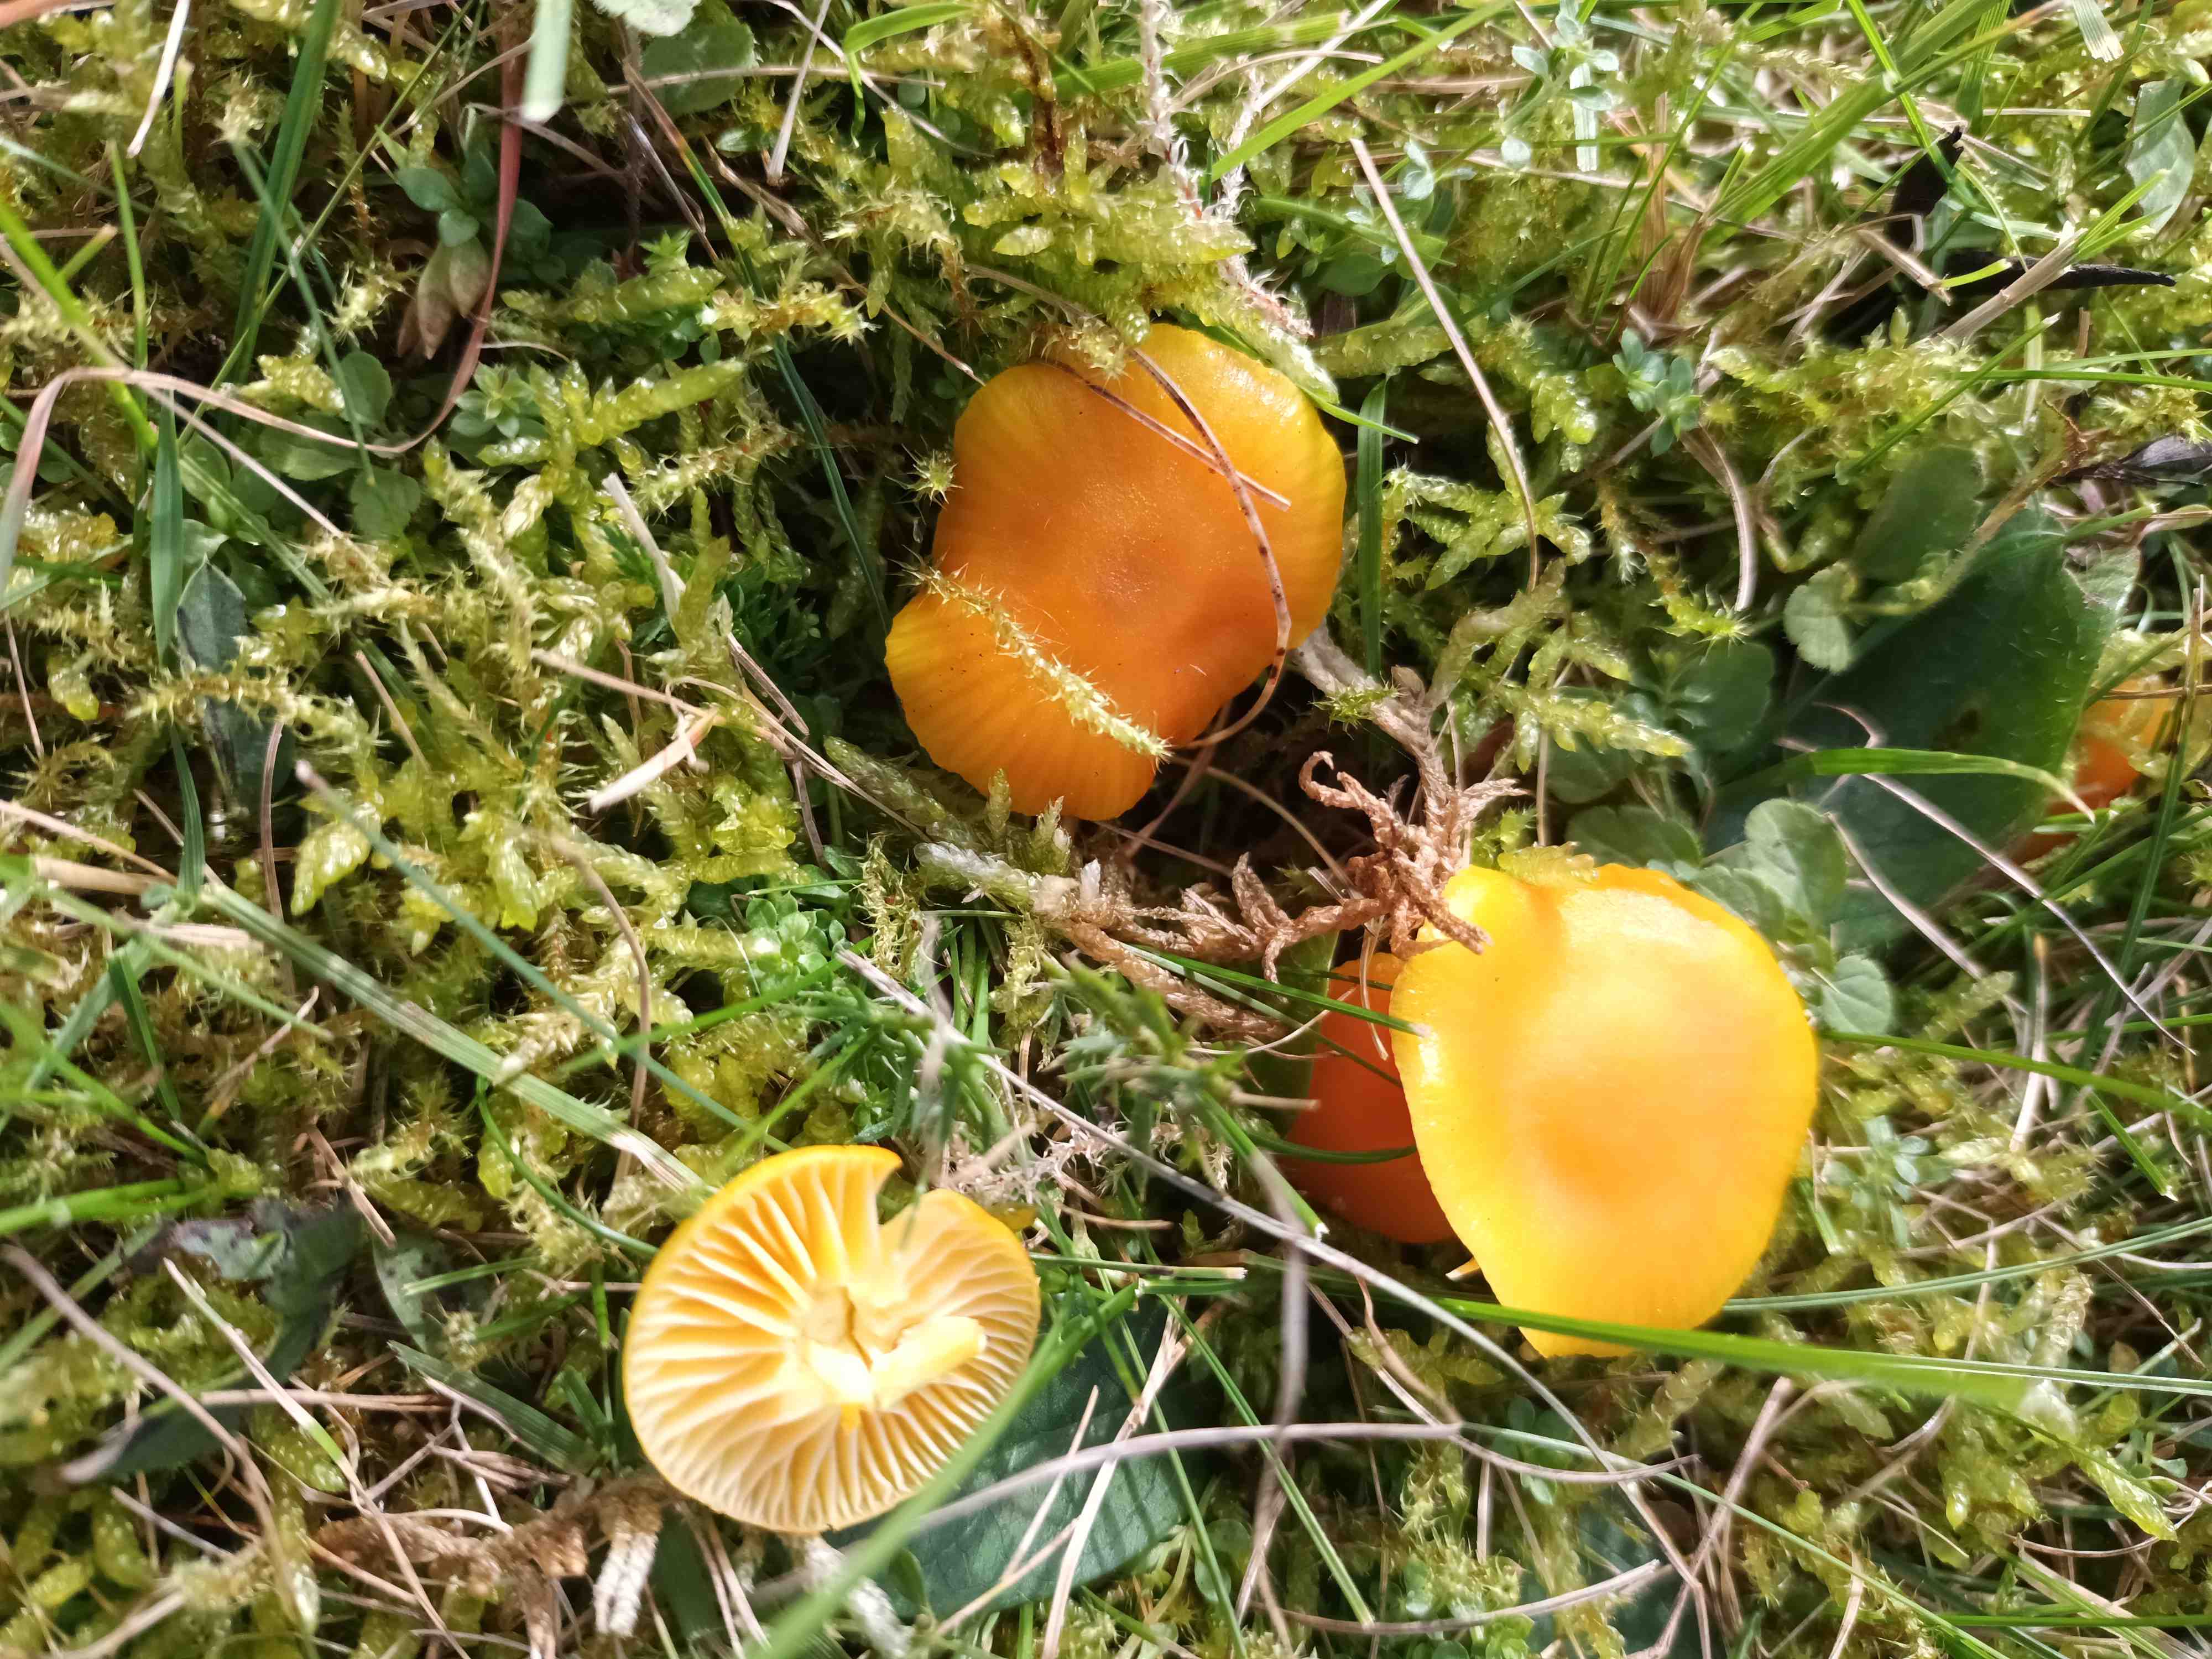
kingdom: Fungi
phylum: Basidiomycota
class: Agaricomycetes
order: Agaricales
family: Hygrophoraceae
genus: Hygrocybe
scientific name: Hygrocybe ceracea
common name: voksgul vokshat
